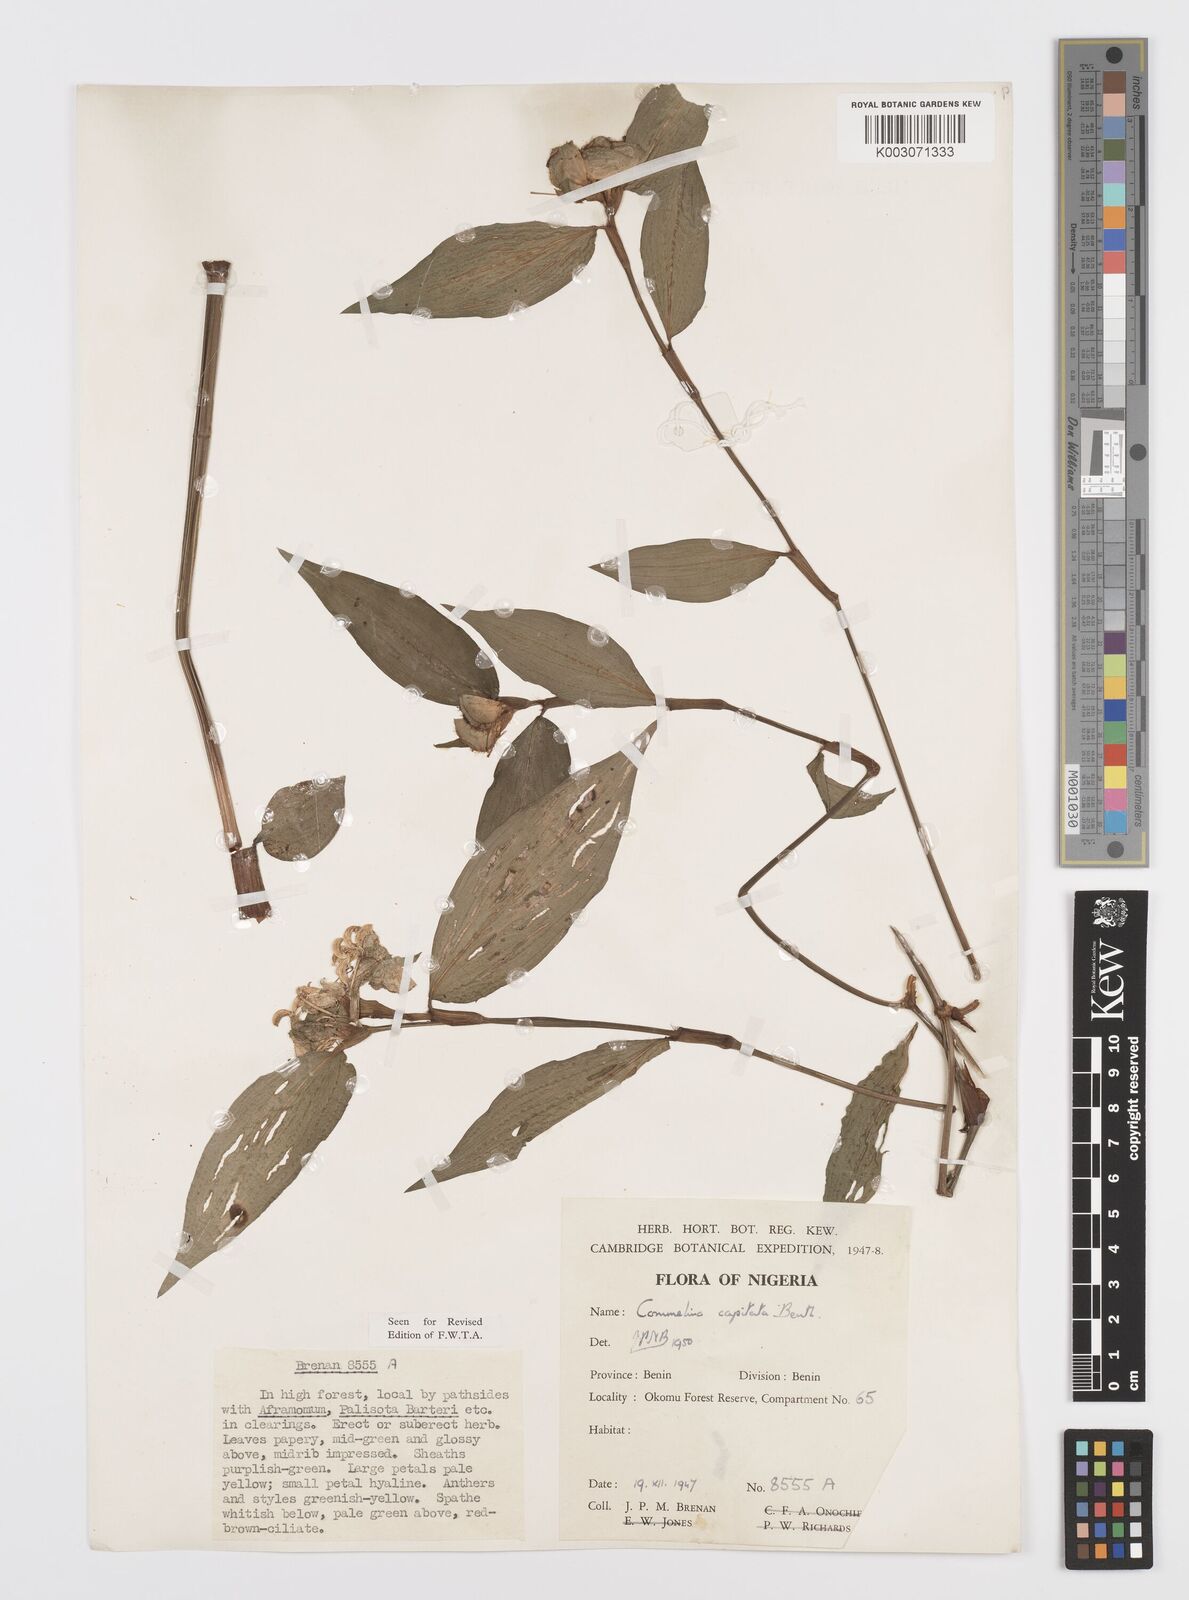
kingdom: Plantae
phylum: Tracheophyta
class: Liliopsida
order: Commelinales
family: Commelinaceae
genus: Commelina
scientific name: Commelina capitata
